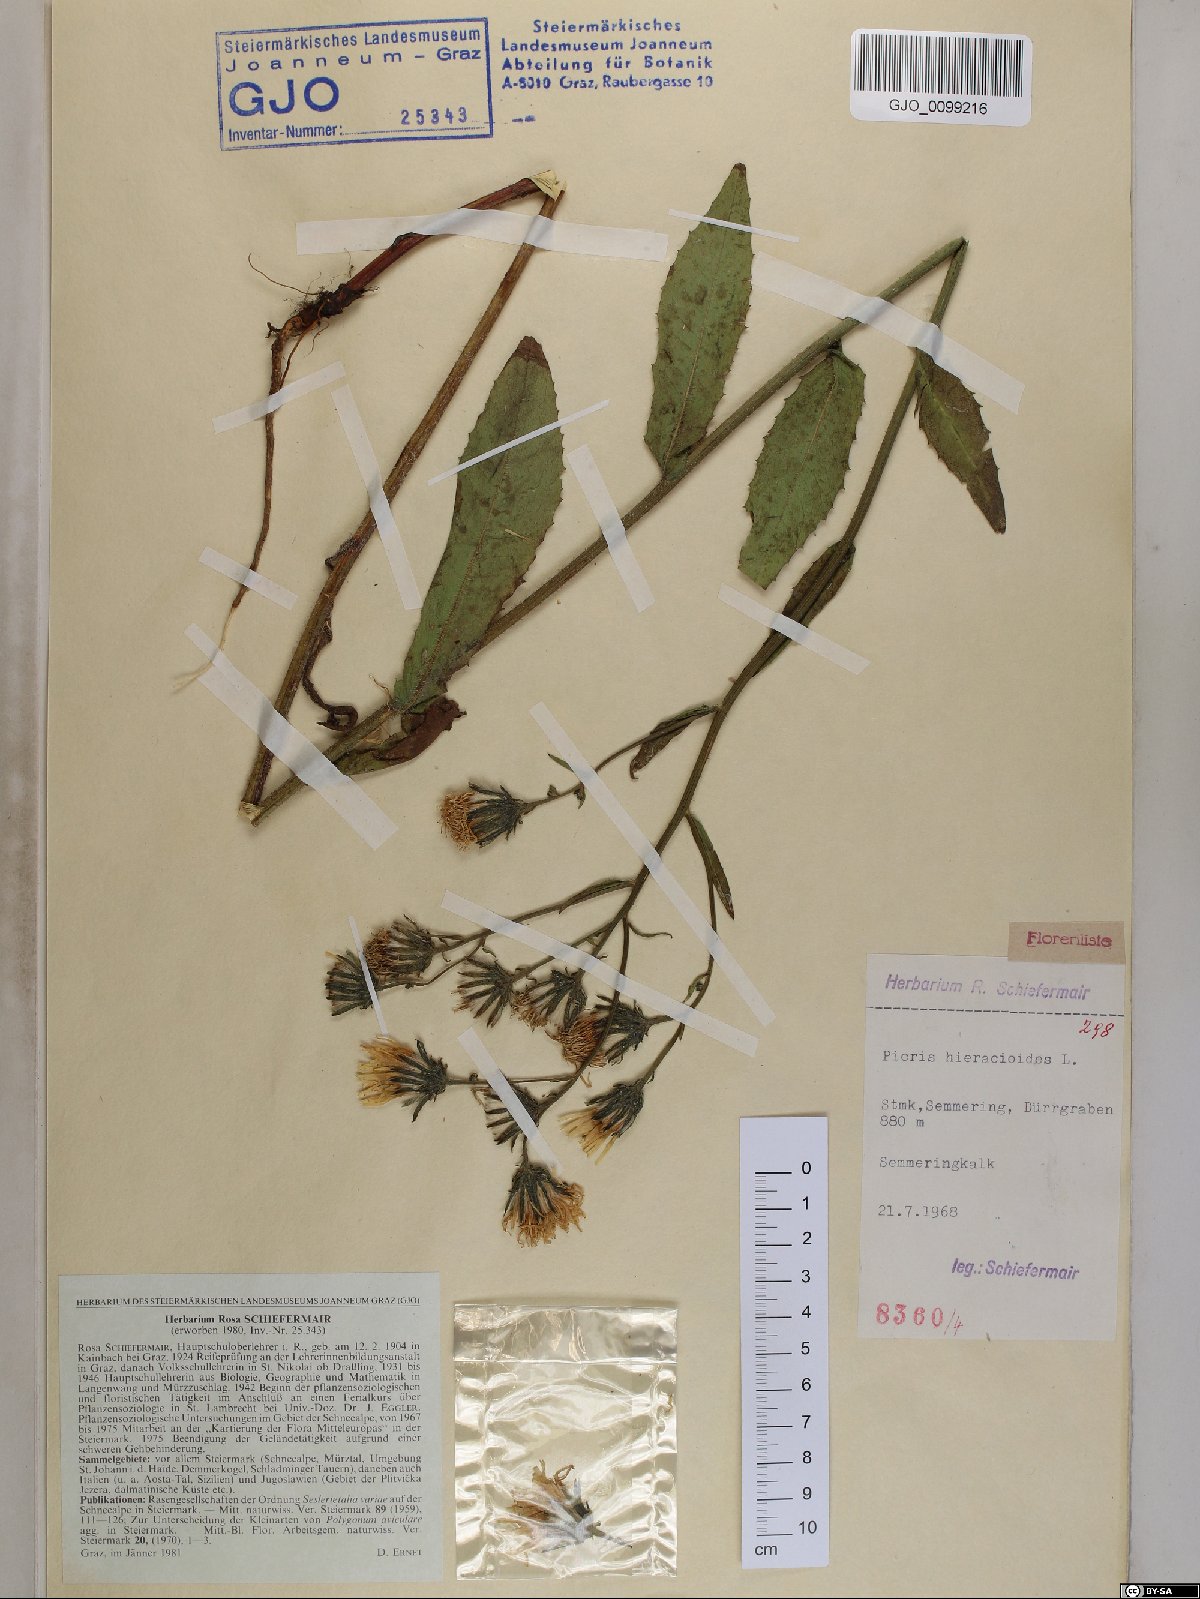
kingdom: Plantae
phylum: Tracheophyta
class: Magnoliopsida
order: Asterales
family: Asteraceae
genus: Picris
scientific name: Picris hieracioides
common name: Hawkweed oxtongue
